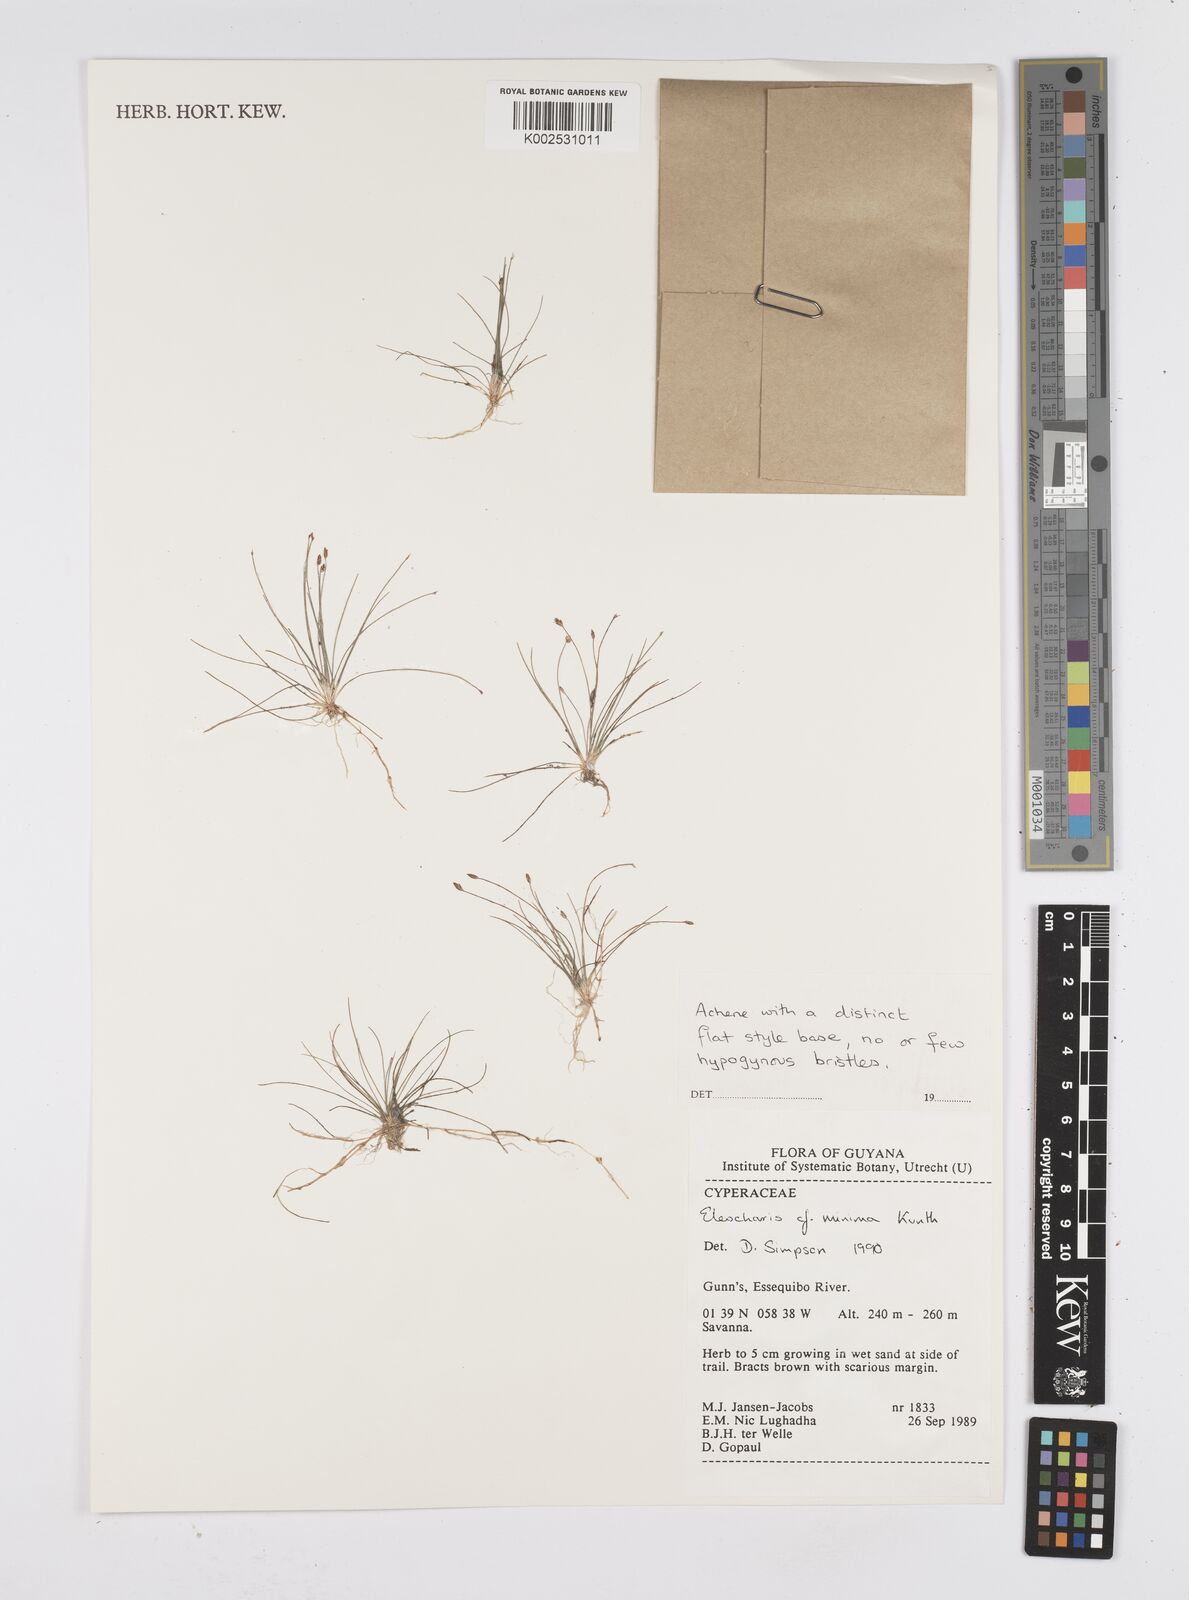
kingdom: Plantae
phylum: Tracheophyta
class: Liliopsida
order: Poales
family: Cyperaceae
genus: Eleocharis
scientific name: Eleocharis minima
